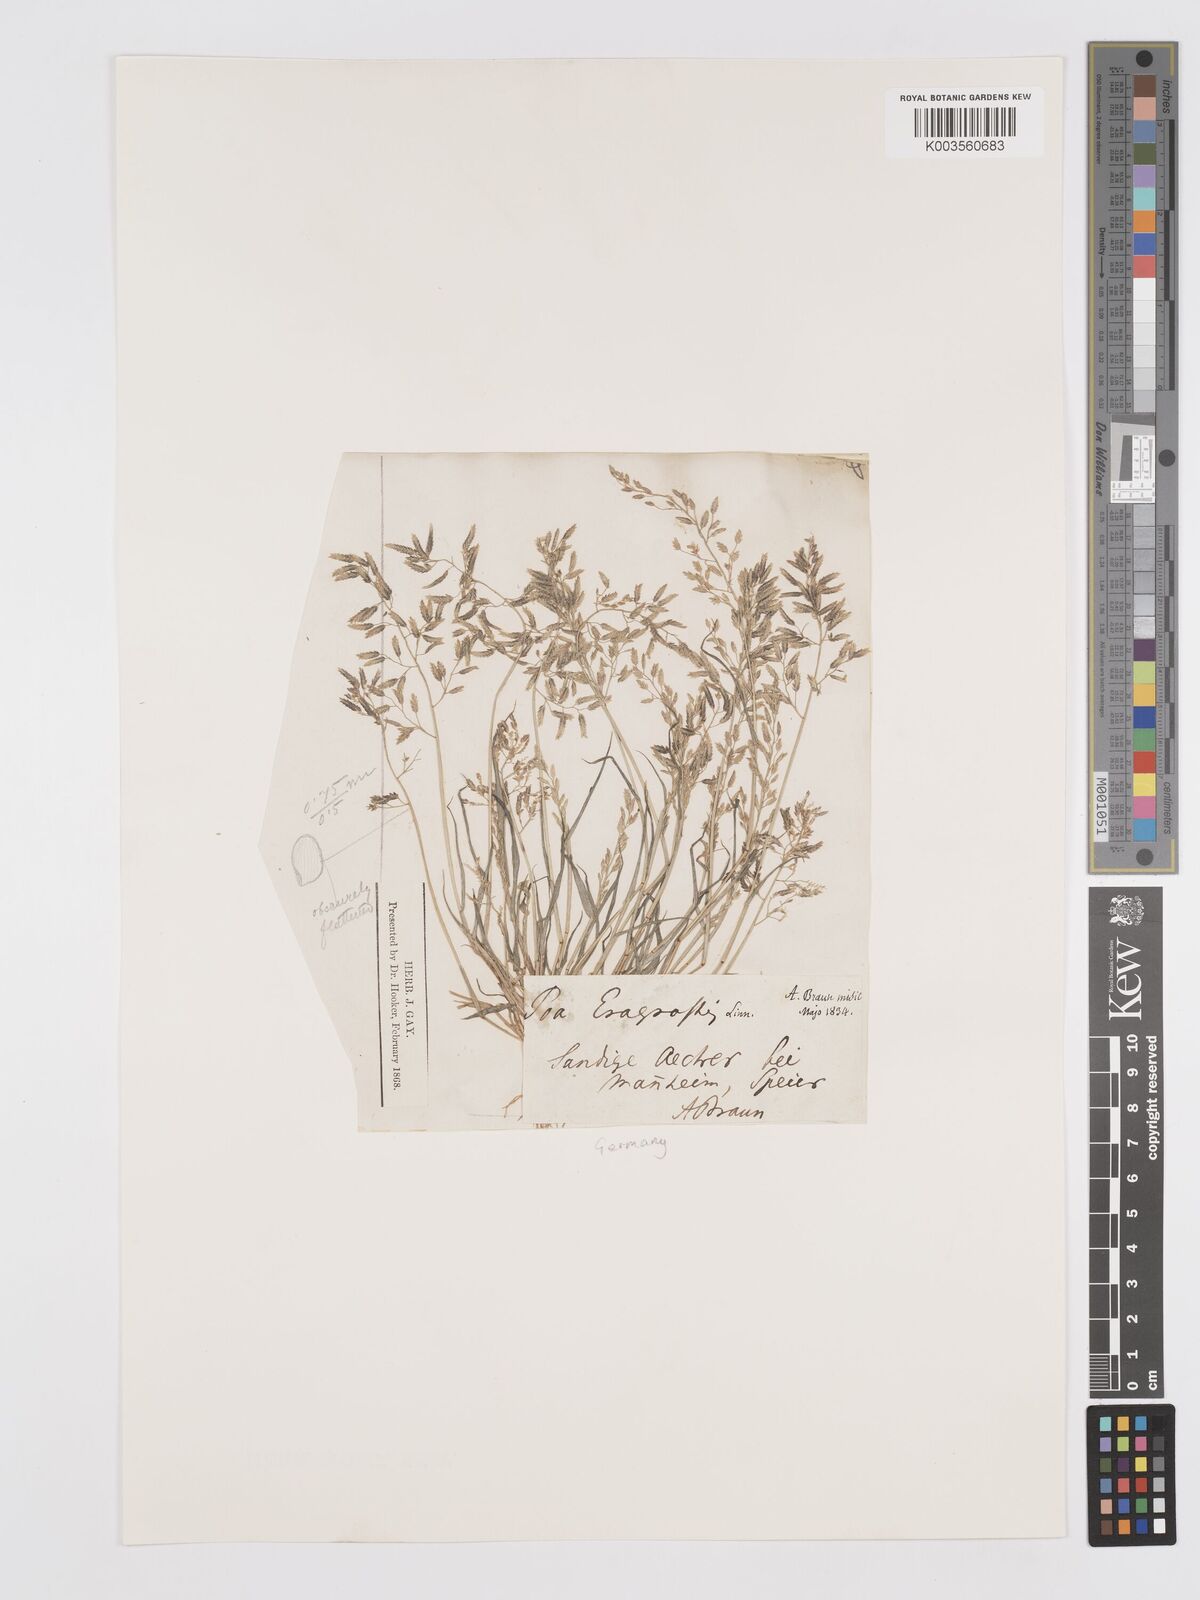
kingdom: Plantae
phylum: Tracheophyta
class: Liliopsida
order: Poales
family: Poaceae
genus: Eragrostis
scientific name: Eragrostis minor
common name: Small love-grass
